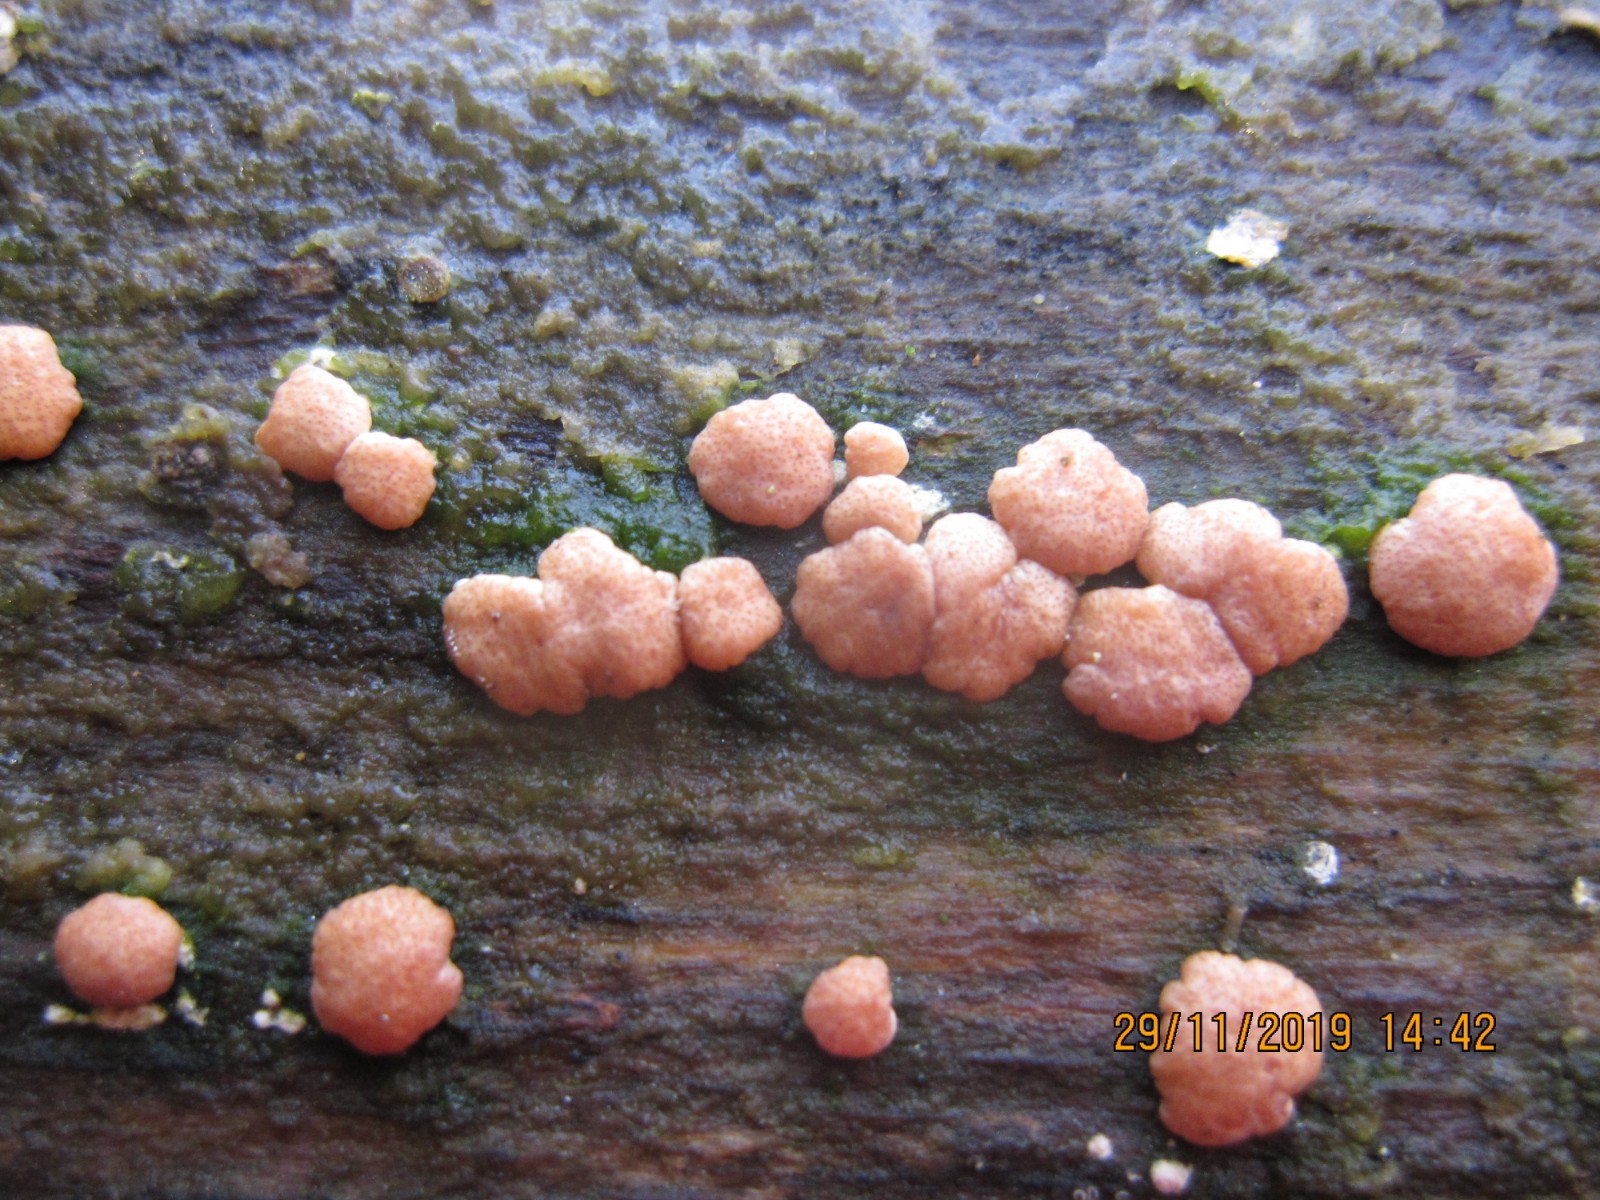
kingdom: Fungi
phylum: Ascomycota
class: Sordariomycetes
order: Hypocreales
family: Hypocreaceae
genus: Trichoderma
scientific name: Trichoderma europaeum
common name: rosabrun kødkerne
